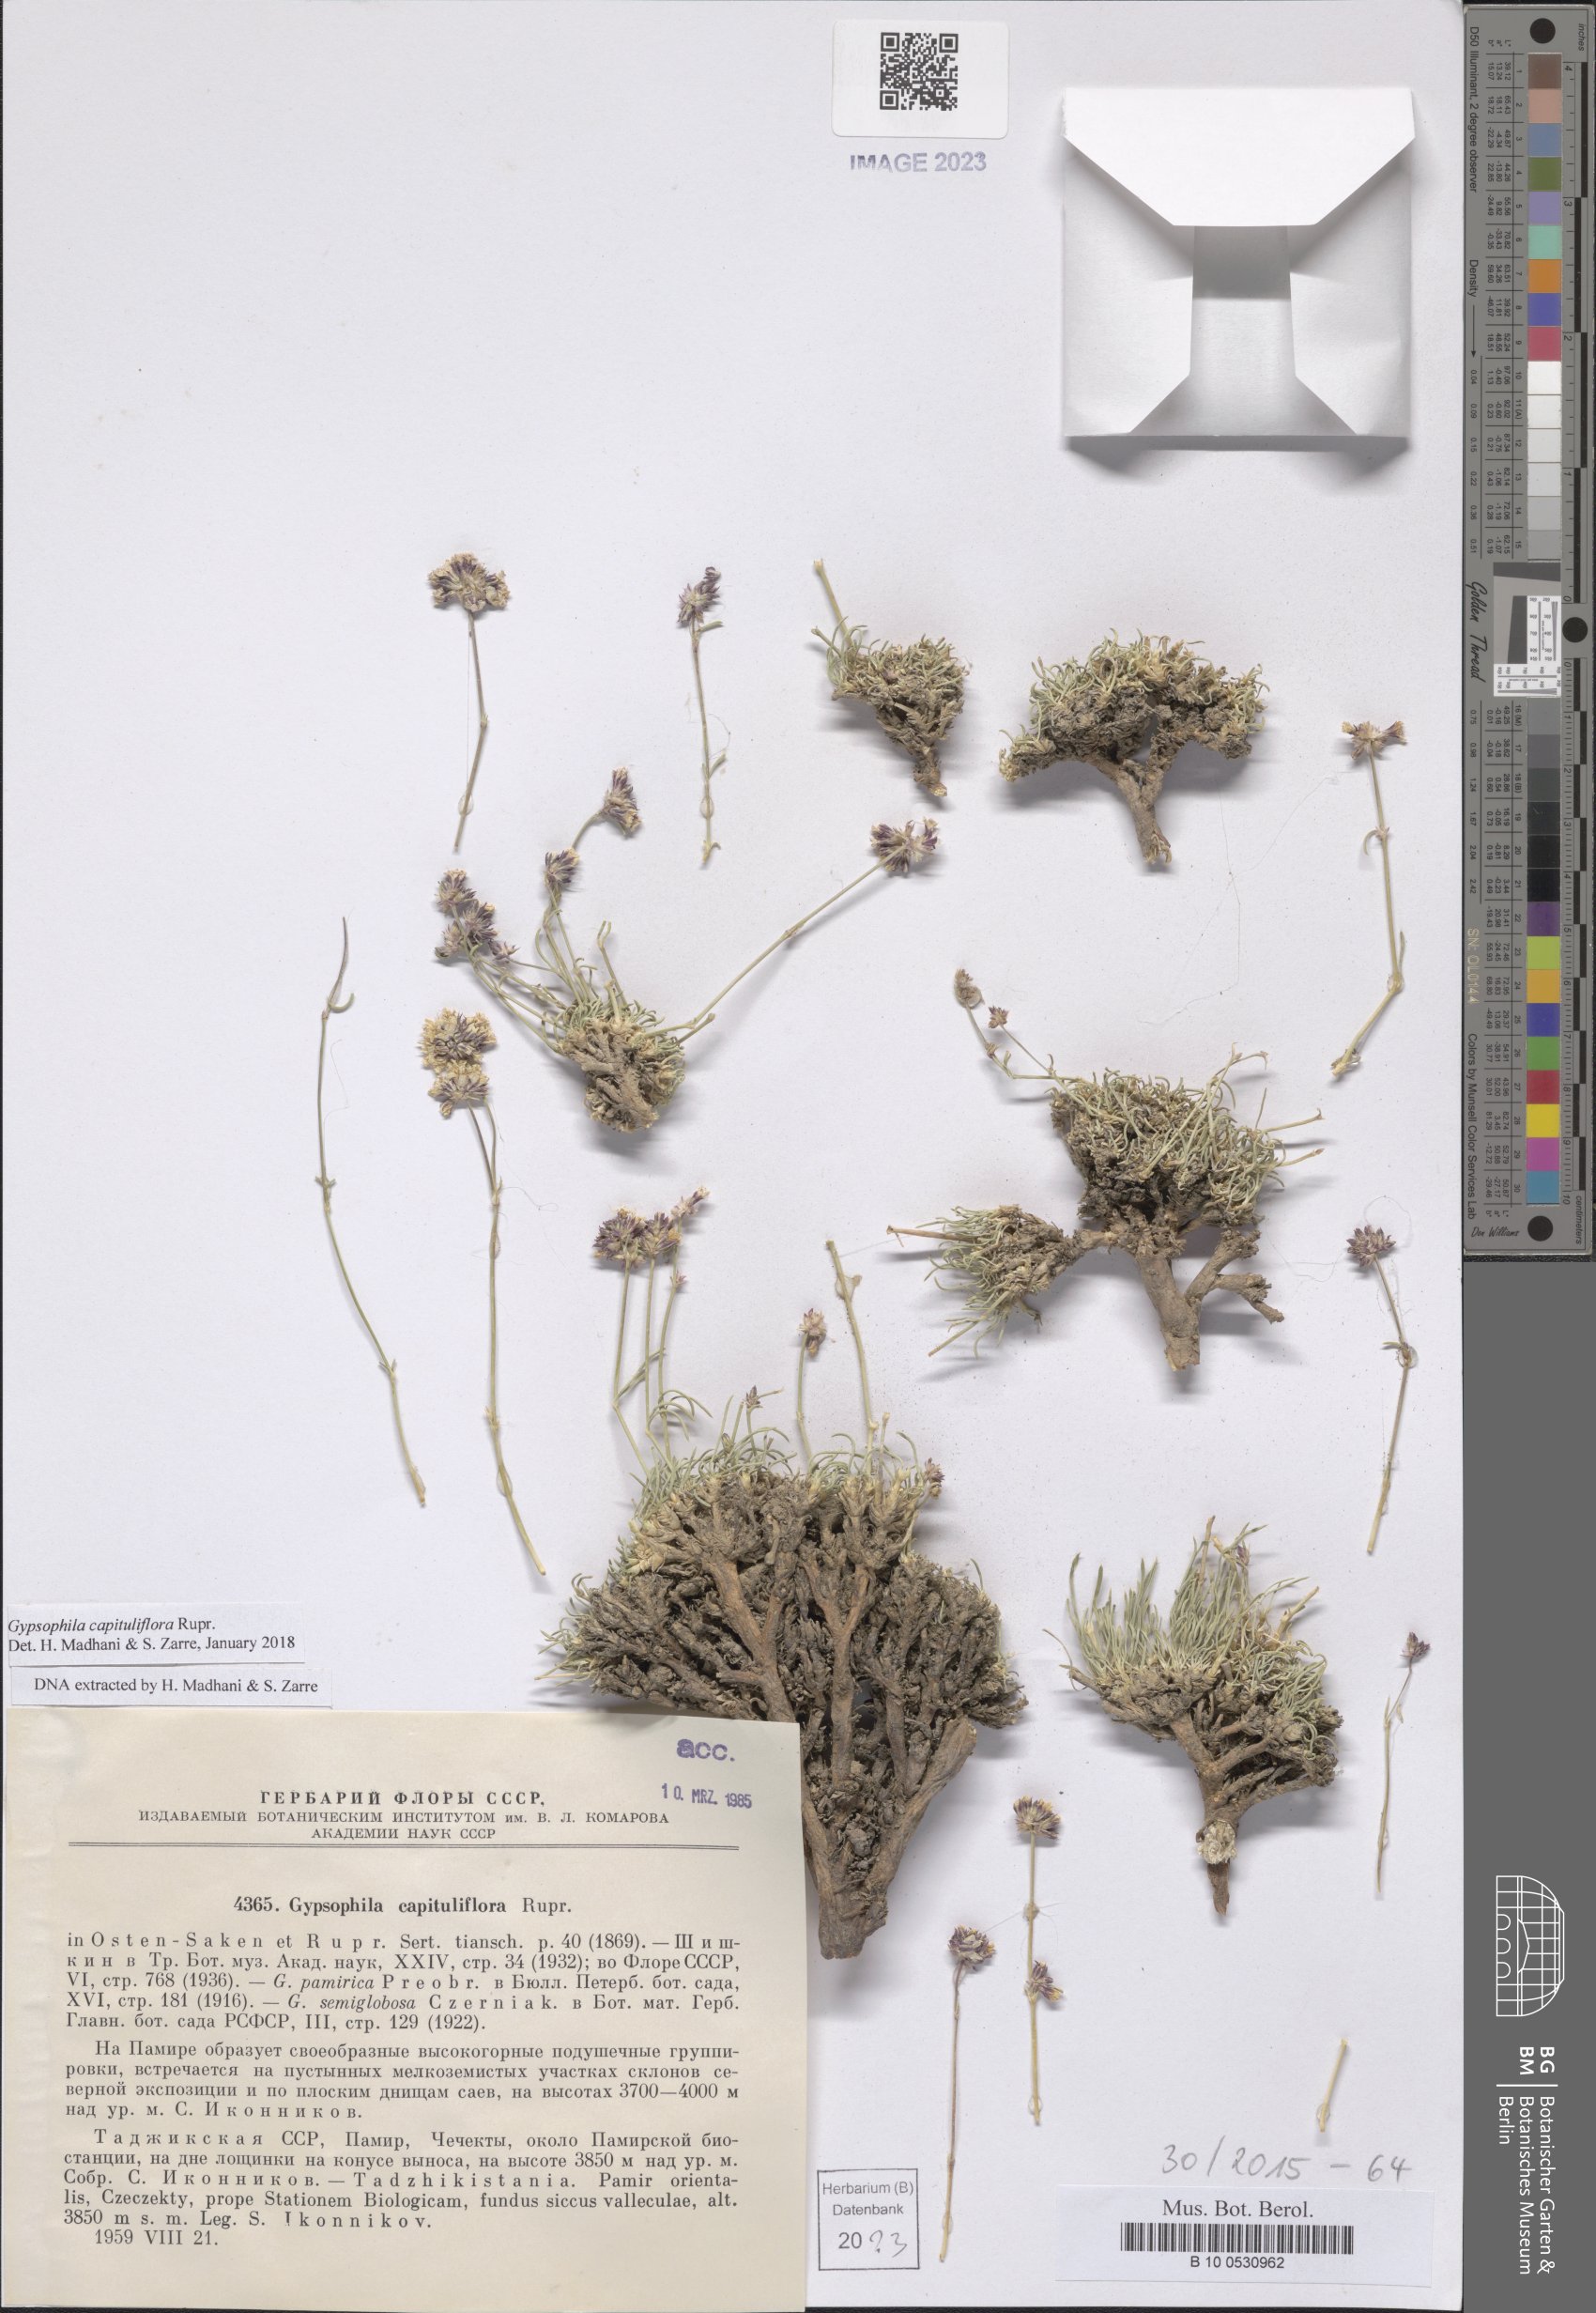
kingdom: Plantae
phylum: Tracheophyta
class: Magnoliopsida
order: Caryophyllales
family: Caryophyllaceae
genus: Gypsophila
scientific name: Gypsophila capituliflora
